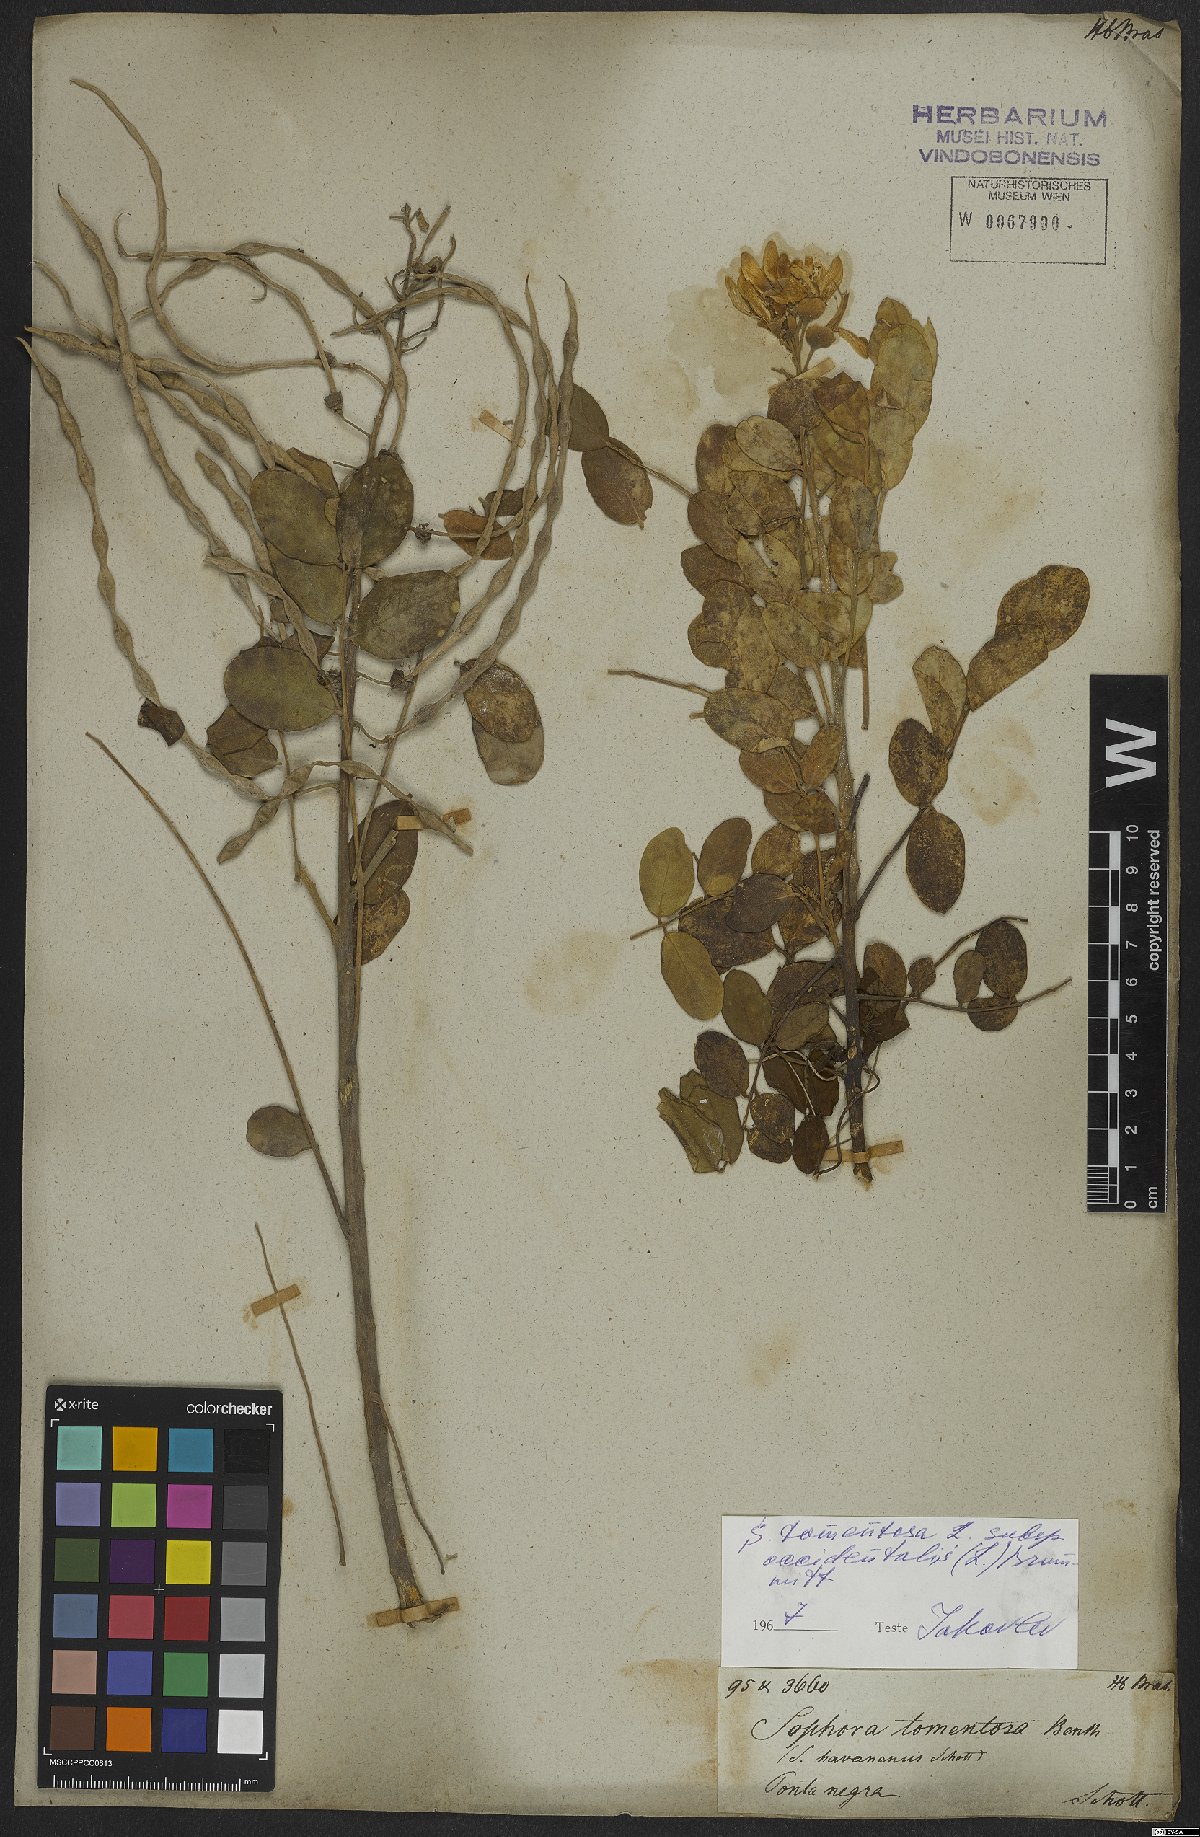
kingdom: Plantae
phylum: Tracheophyta
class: Magnoliopsida
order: Fabales
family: Fabaceae
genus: Sophora
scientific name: Sophora tomentosa
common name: Yellow necklacepod
